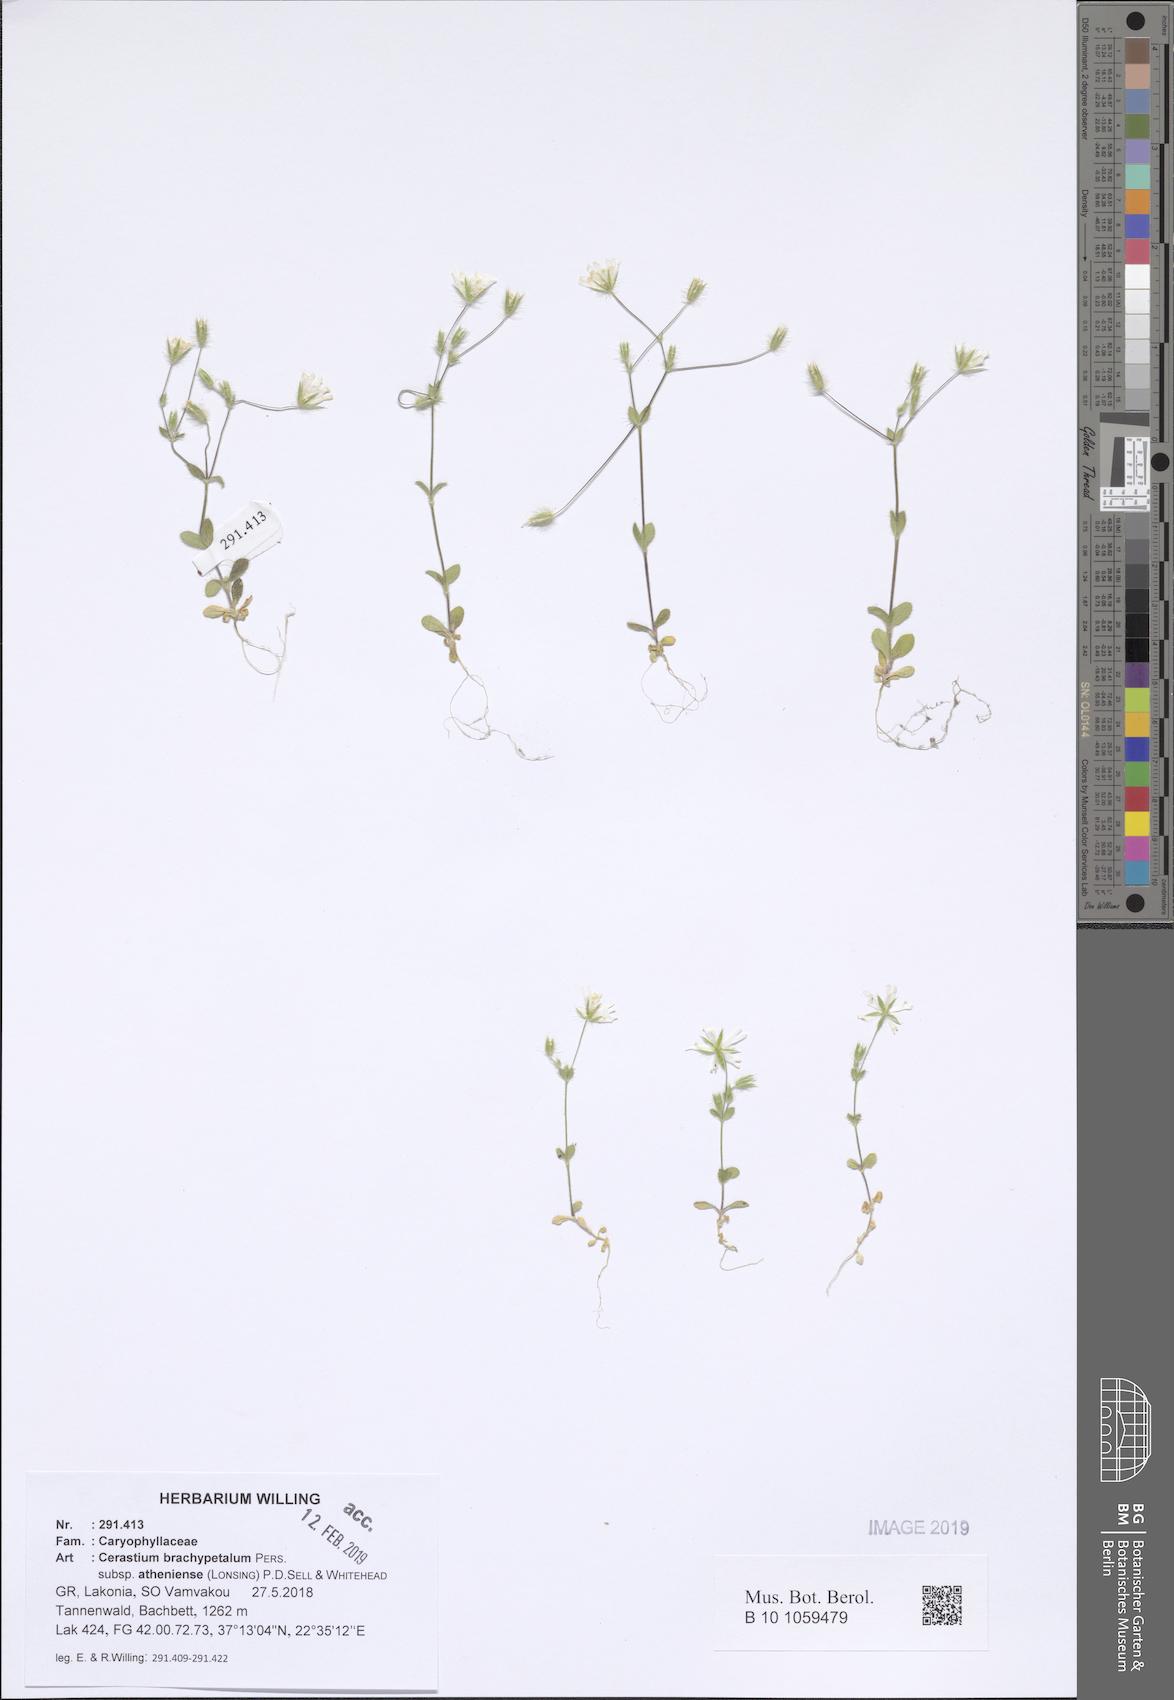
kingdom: Plantae
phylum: Tracheophyta
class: Magnoliopsida
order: Caryophyllales
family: Caryophyllaceae
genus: Cerastium
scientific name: Cerastium brachypetalum
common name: Grey mouse-ear
